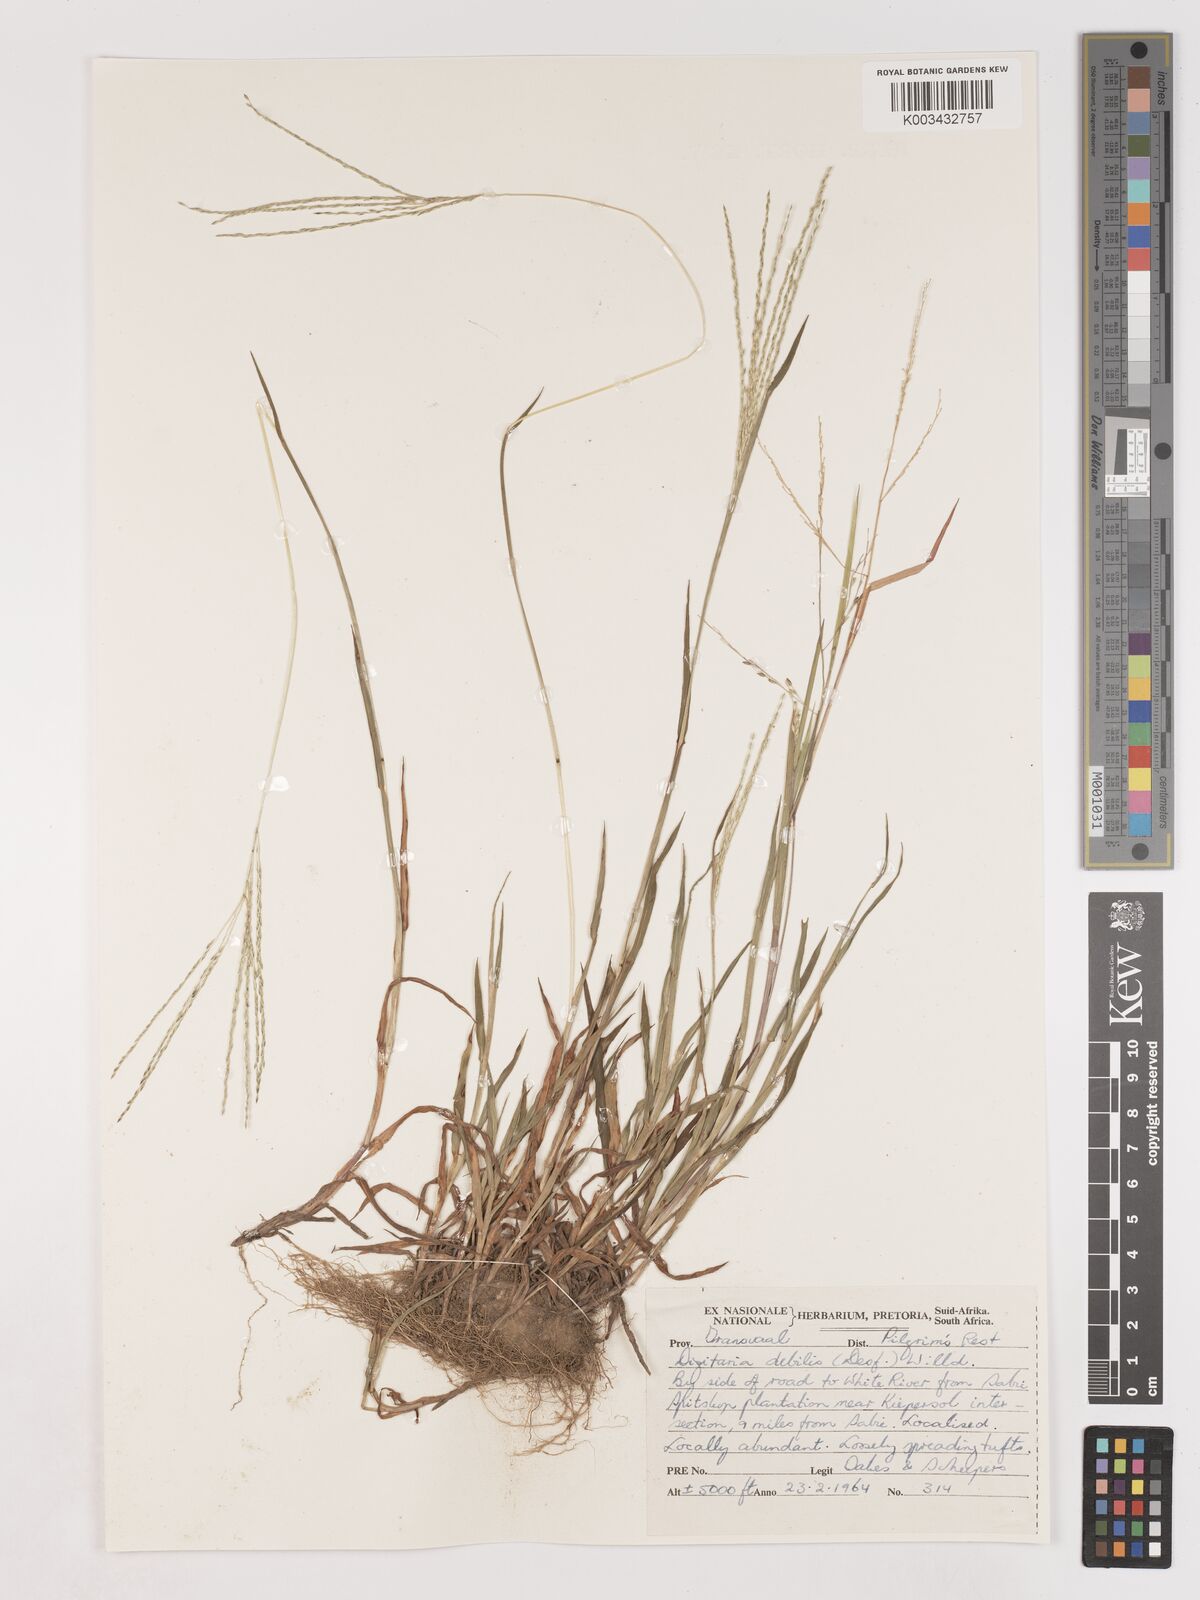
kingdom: Plantae
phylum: Tracheophyta
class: Liliopsida
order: Poales
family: Poaceae
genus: Digitaria
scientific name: Digitaria debilis
